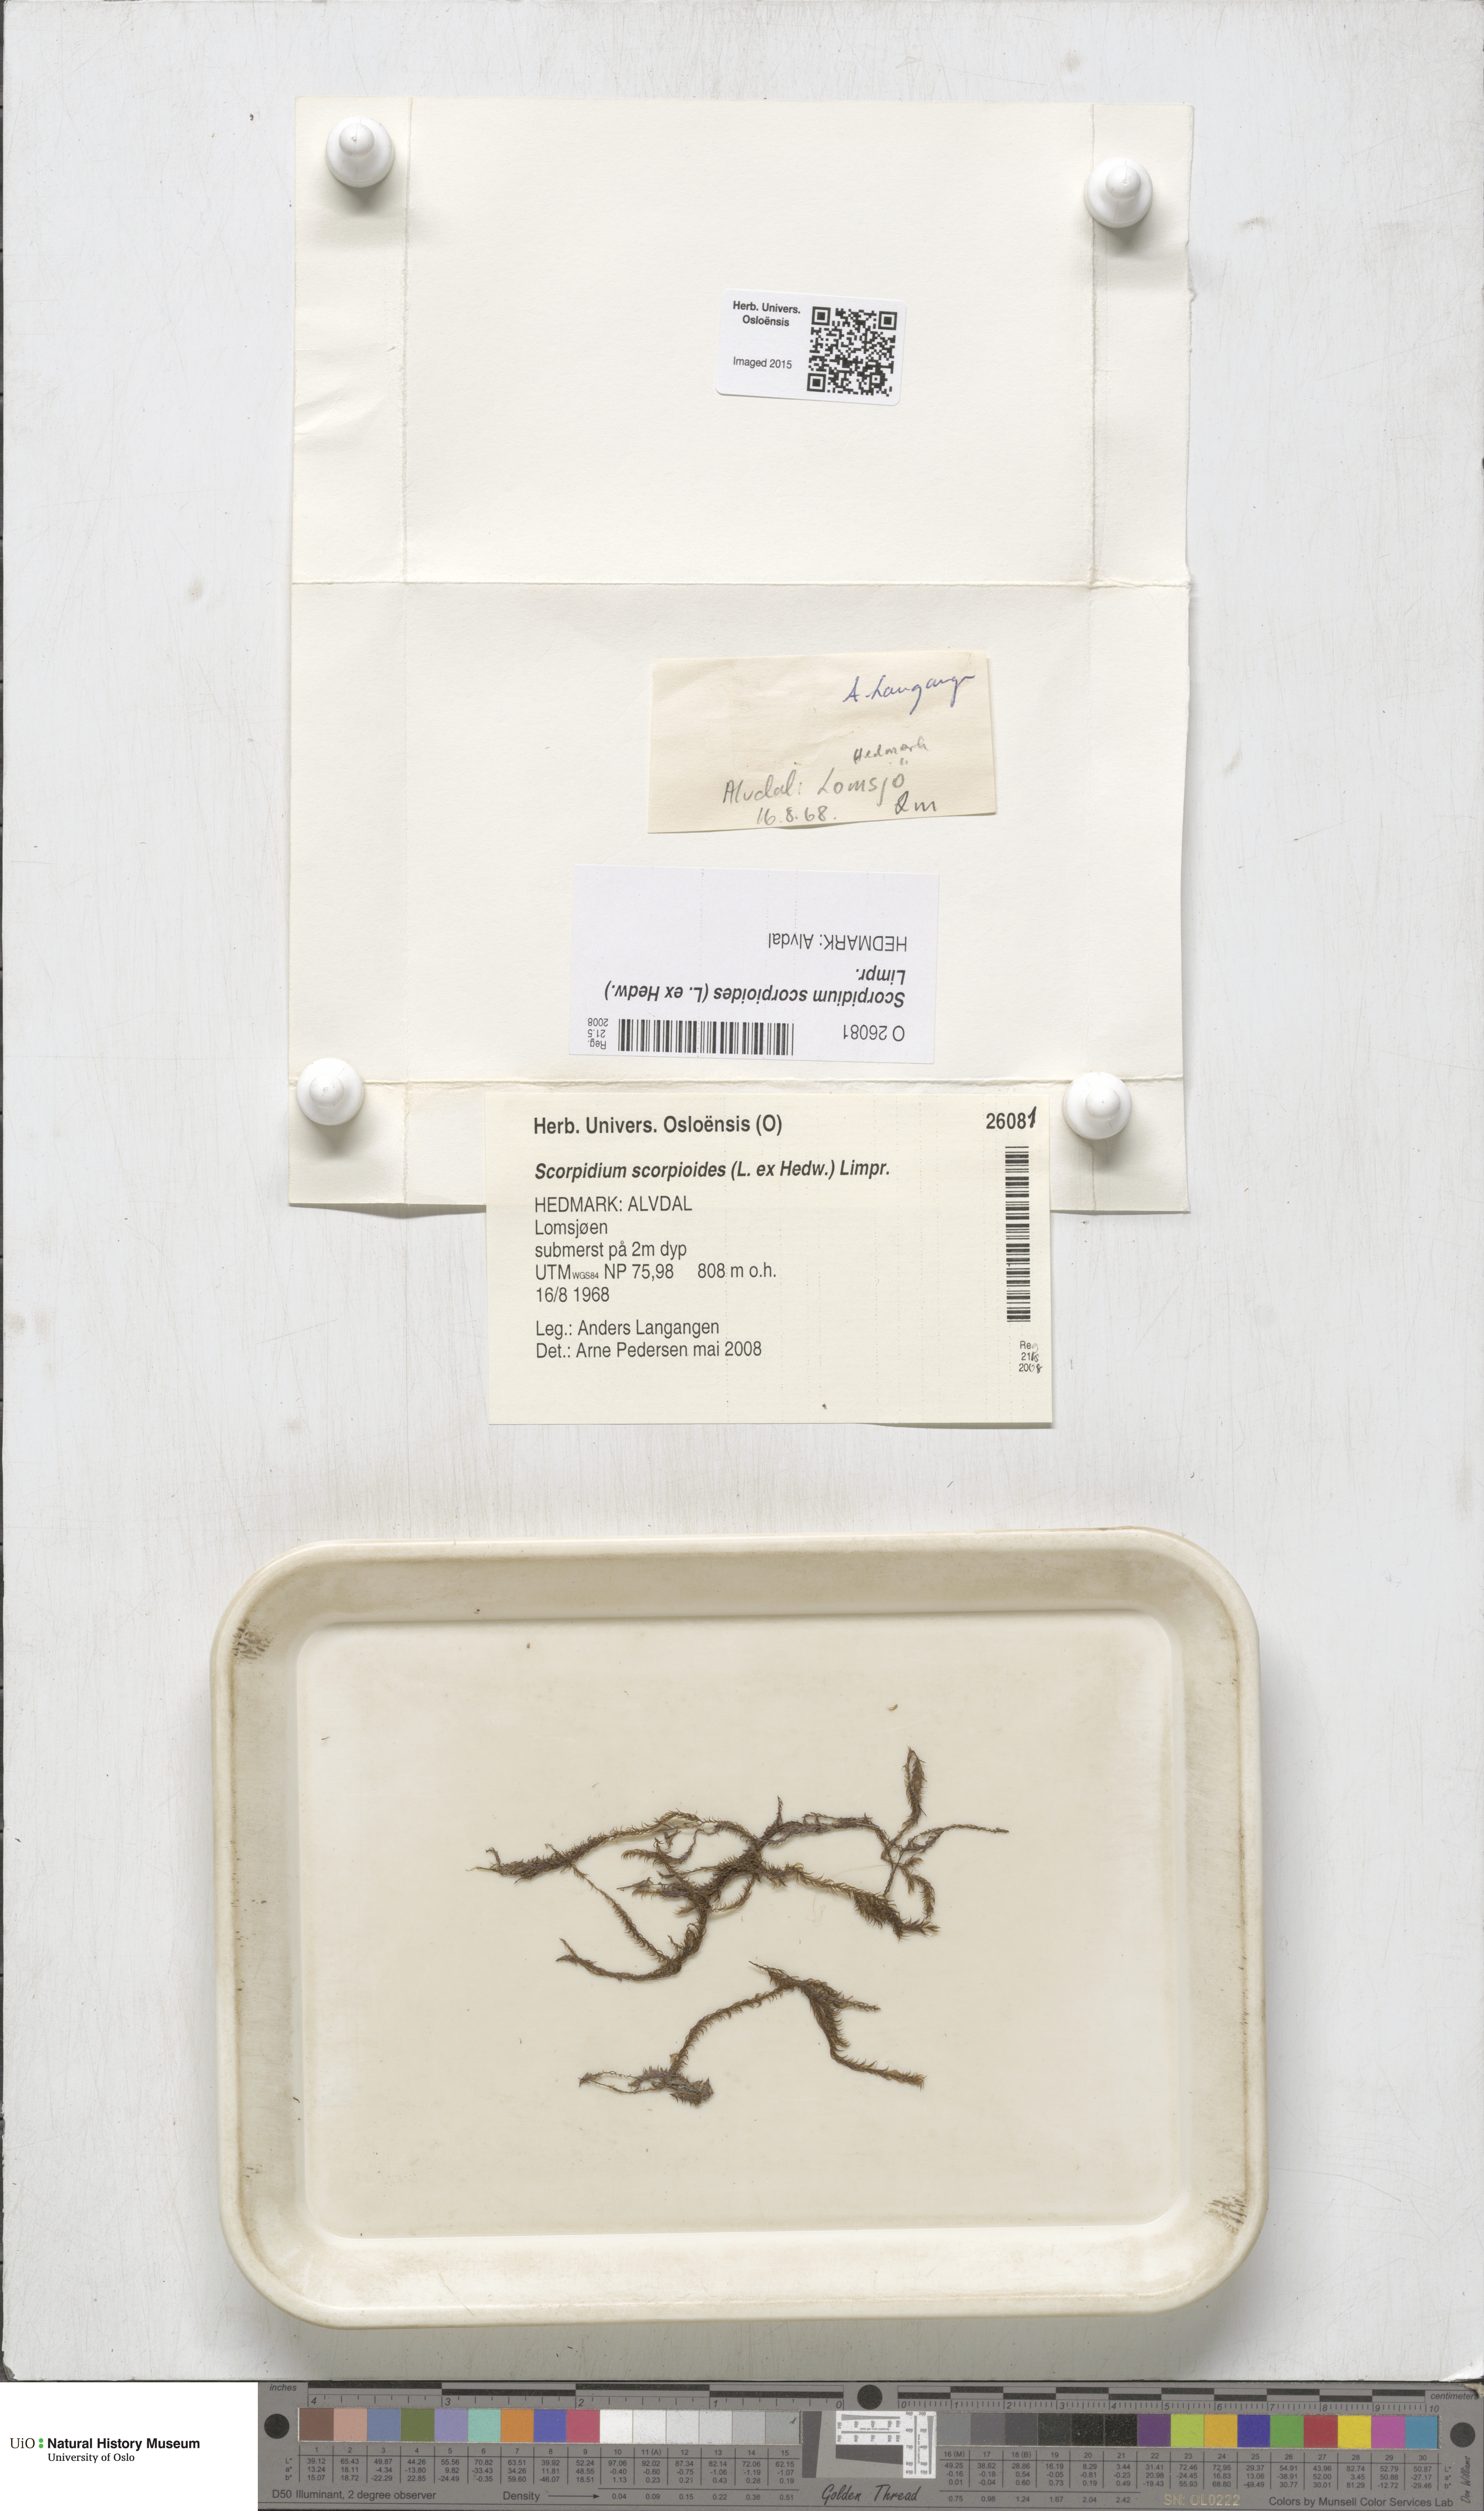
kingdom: Plantae
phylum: Bryophyta
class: Bryopsida
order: Hypnales
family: Scorpidiaceae
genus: Scorpidium
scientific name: Scorpidium scorpioides
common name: Hooked scorpion moss
